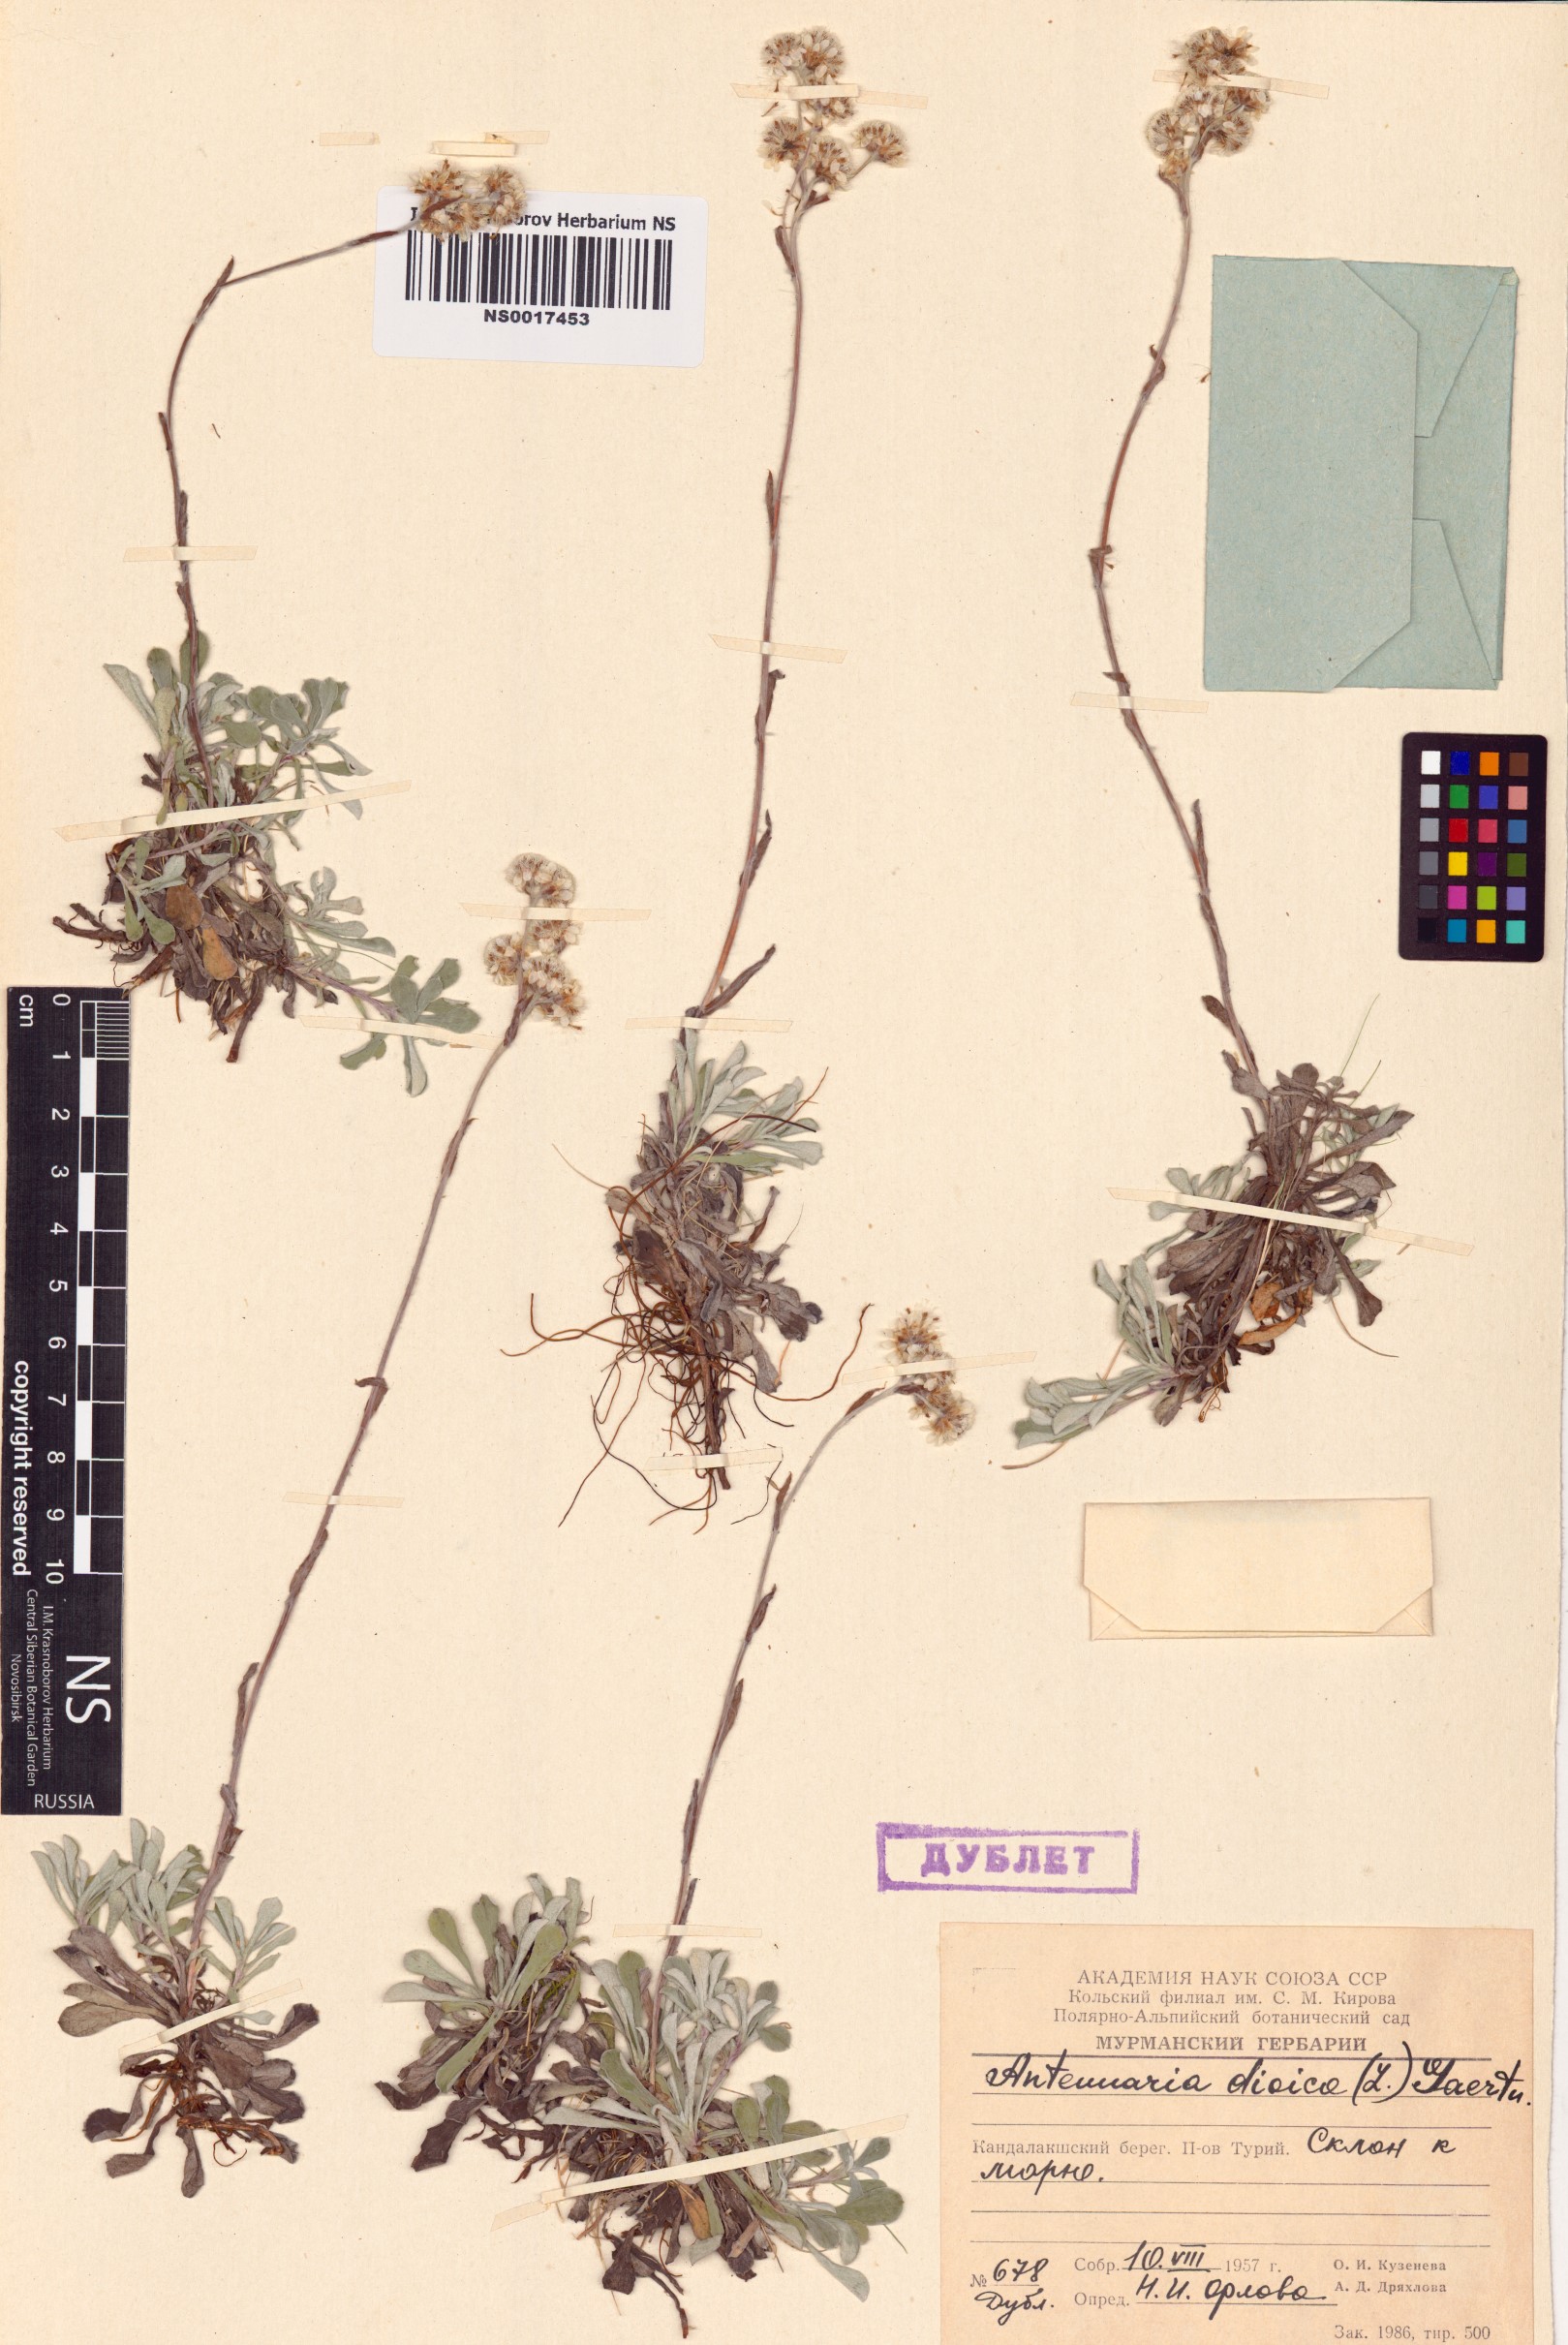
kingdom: Plantae
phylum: Tracheophyta
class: Magnoliopsida
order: Asterales
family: Asteraceae
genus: Antennaria
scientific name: Antennaria dioica
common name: Mountain everlasting
